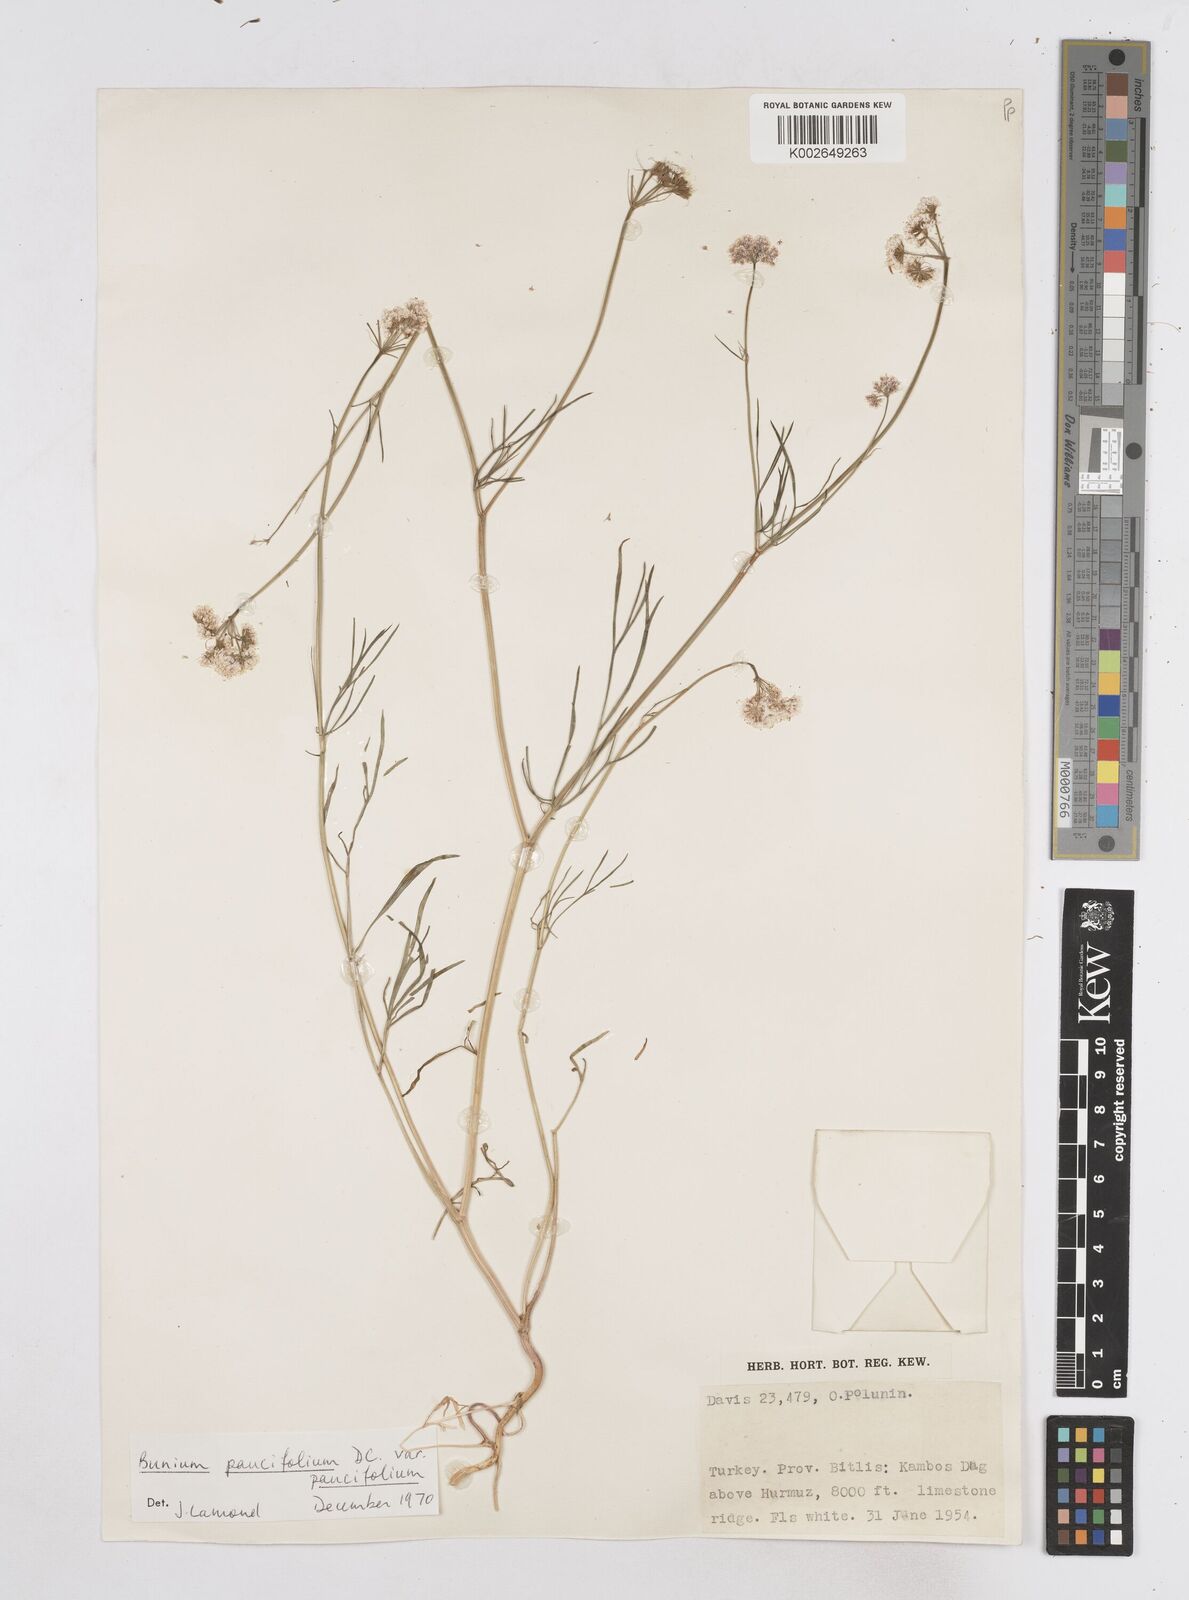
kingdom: Plantae
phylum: Tracheophyta
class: Magnoliopsida
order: Apiales
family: Apiaceae
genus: Bunium
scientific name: Bunium
